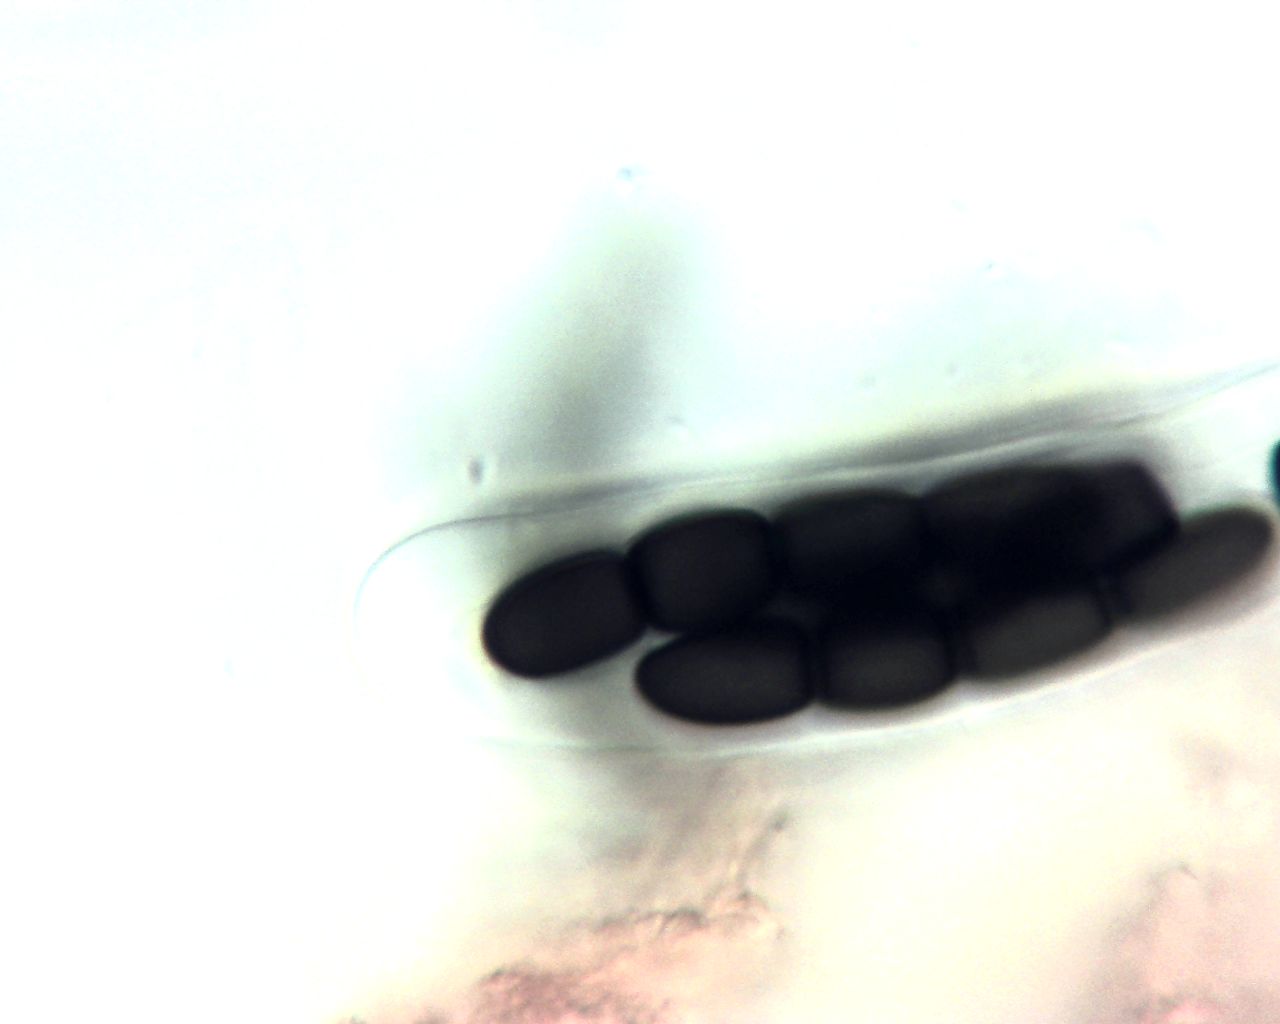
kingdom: Fungi
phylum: Ascomycota
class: Dothideomycetes
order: Pleosporales
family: Sporormiaceae
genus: Sporormiella
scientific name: Sporormiella
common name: knækspore
